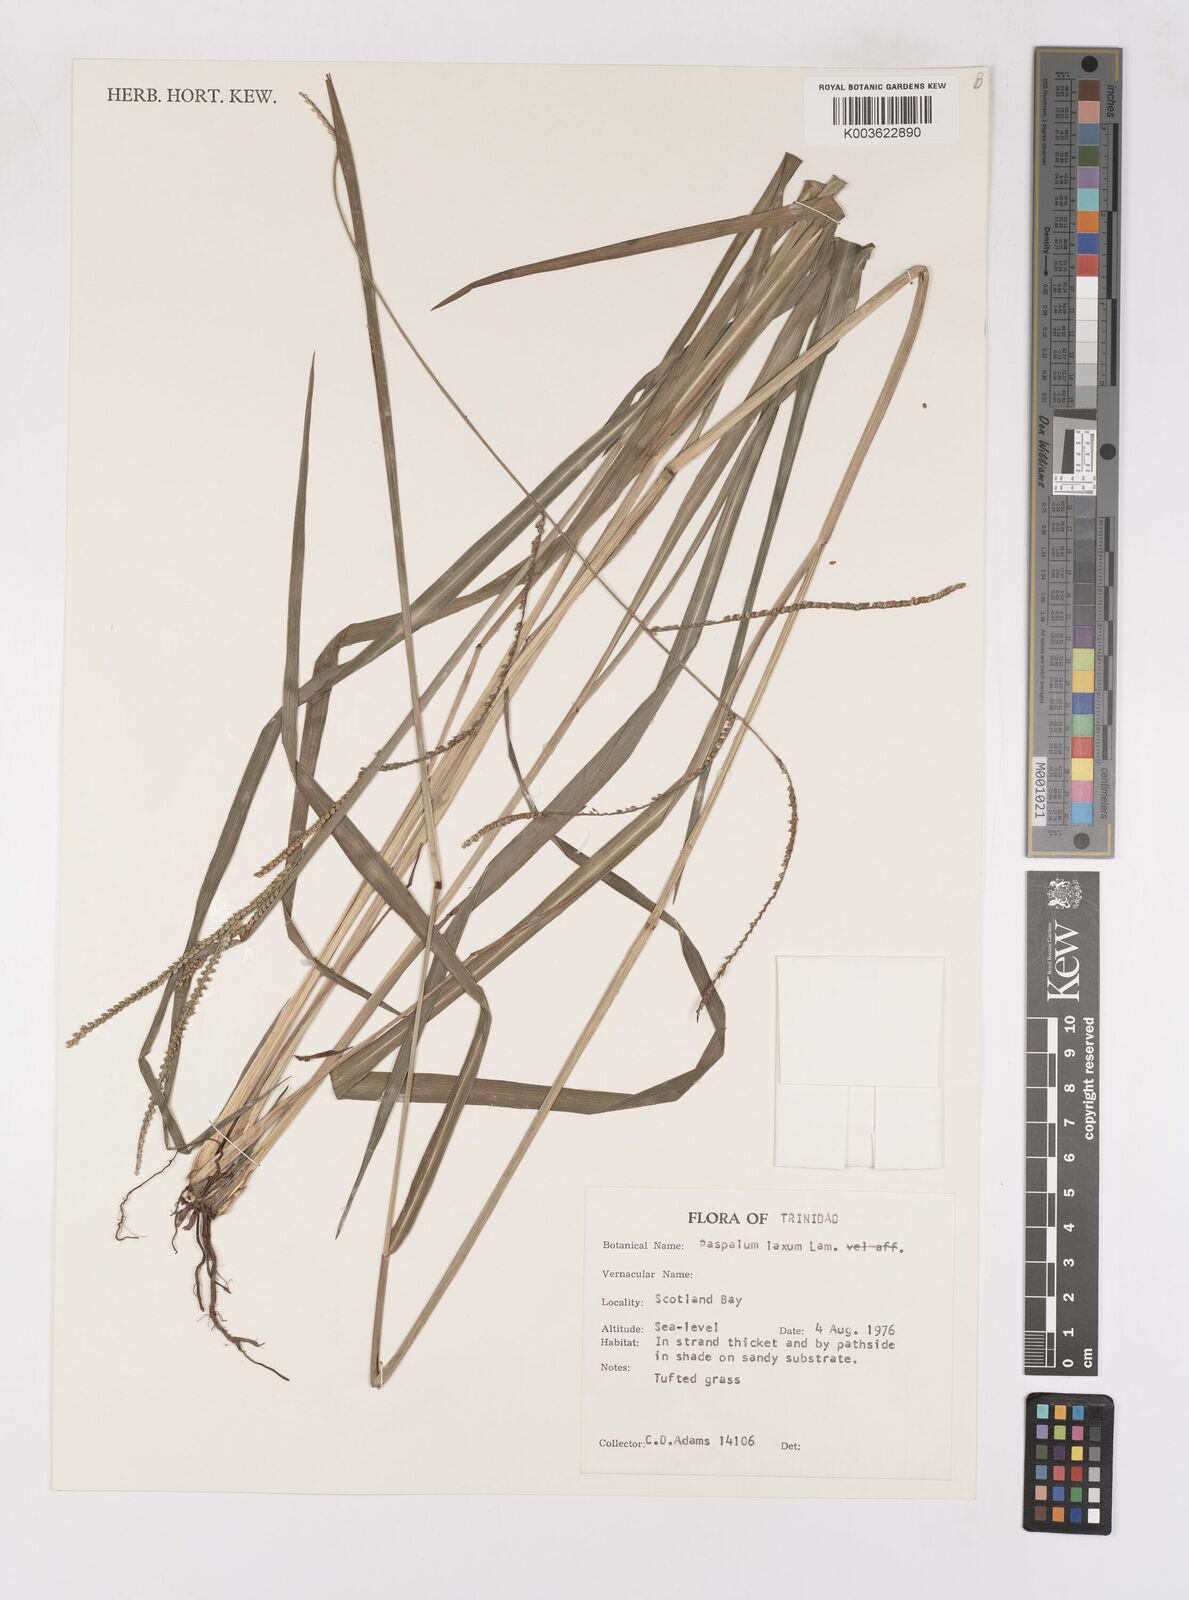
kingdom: Plantae
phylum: Tracheophyta
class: Liliopsida
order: Poales
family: Poaceae
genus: Paspalum
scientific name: Paspalum laxum
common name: Coconut paspalum
